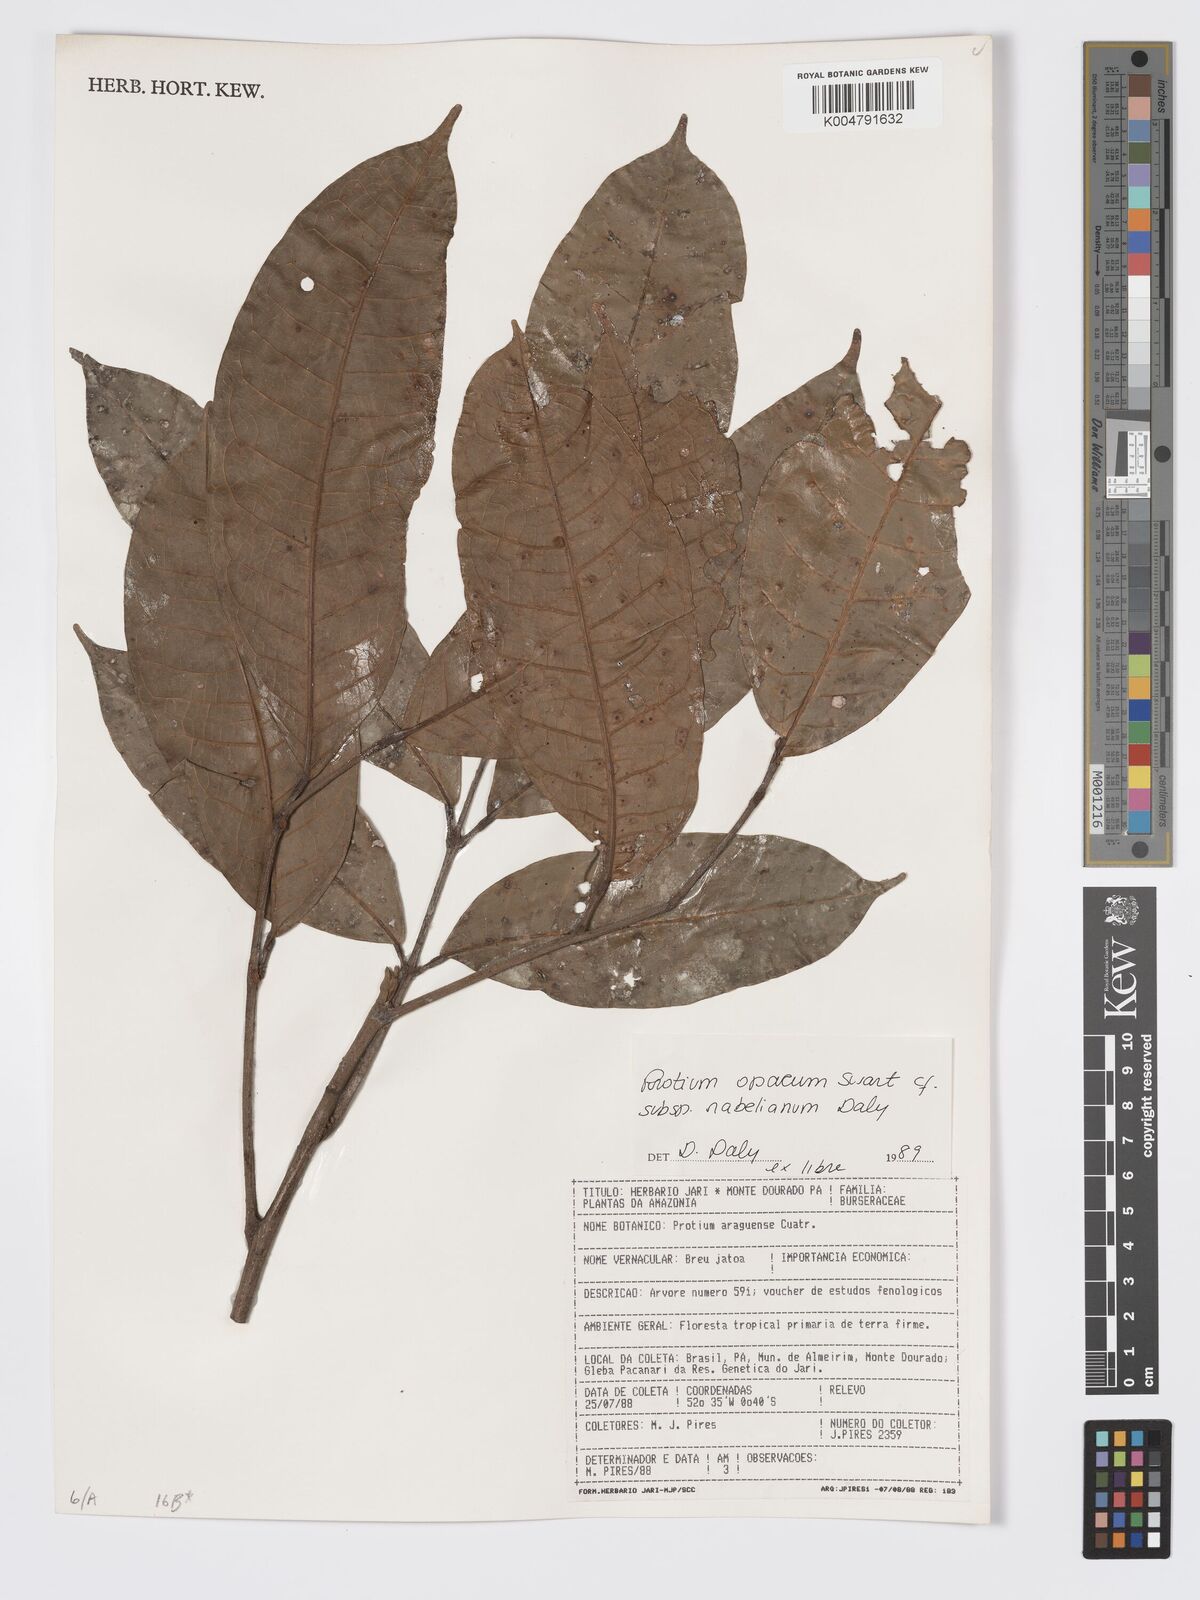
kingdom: Plantae
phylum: Tracheophyta
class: Magnoliopsida
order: Sapindales
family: Burseraceae
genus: Protium
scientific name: Protium opacum
